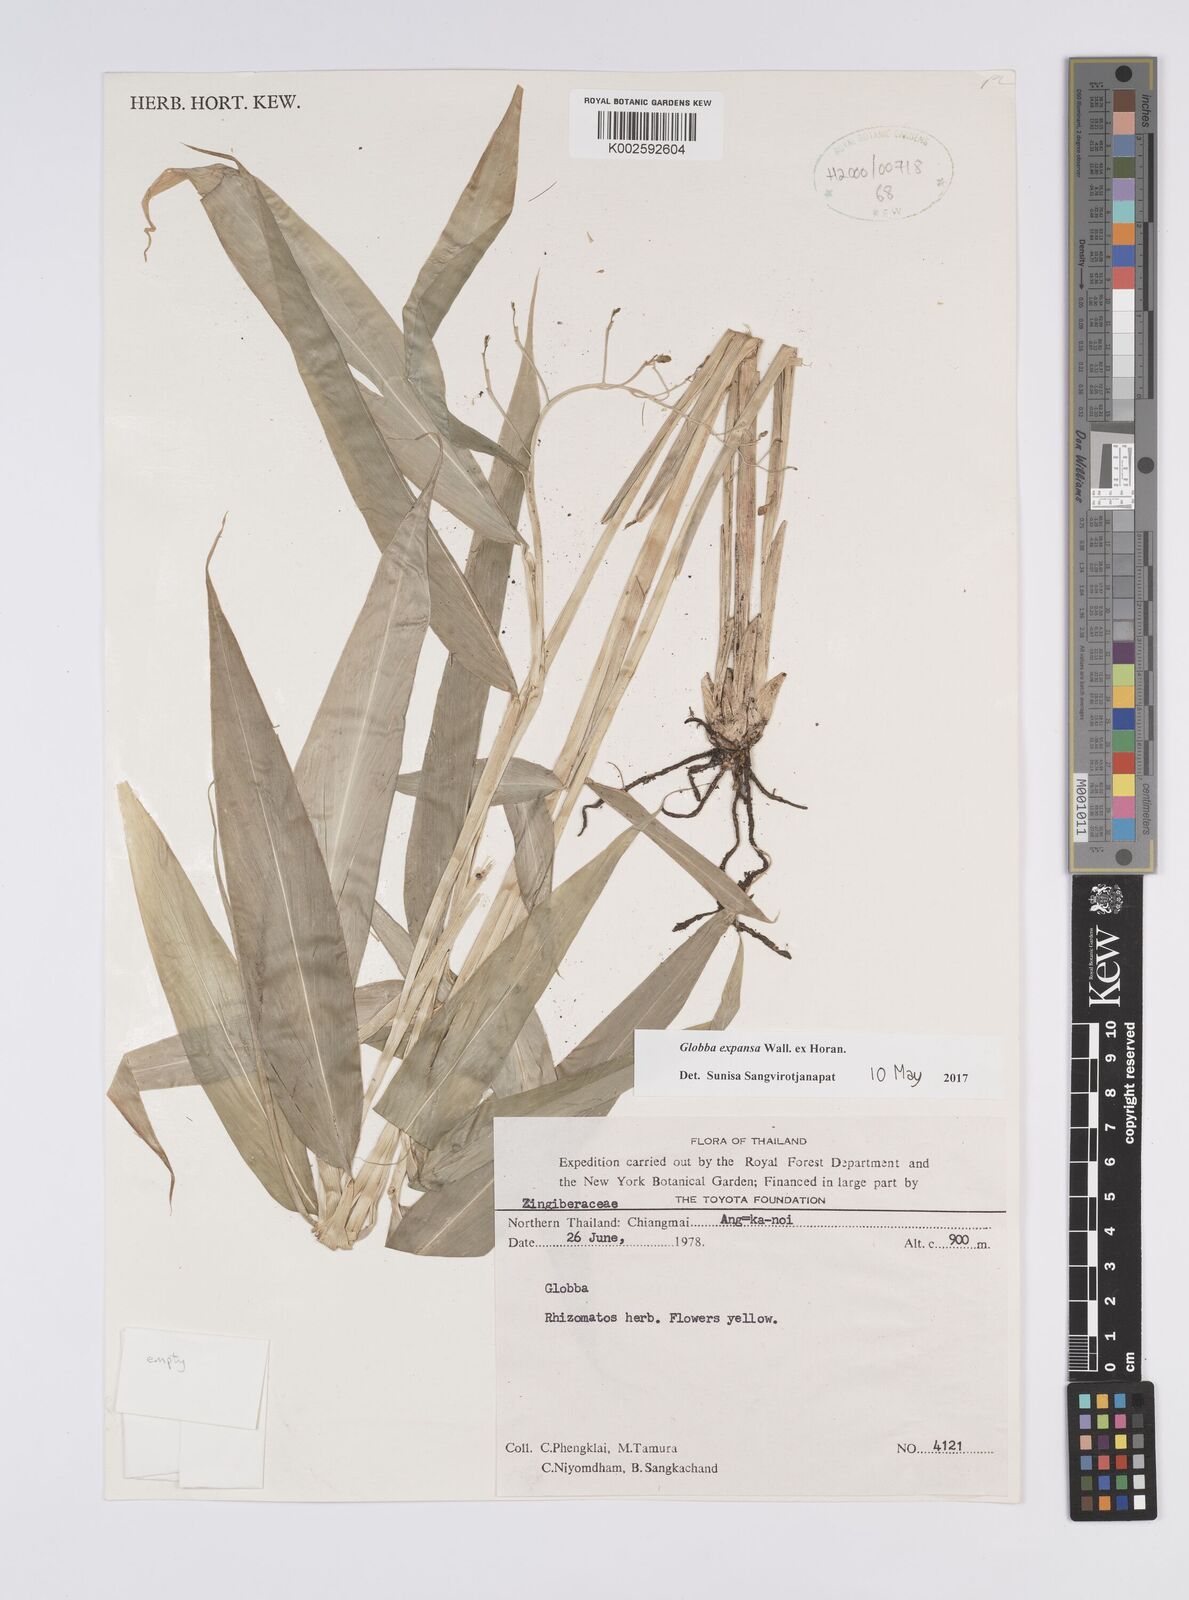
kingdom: Plantae
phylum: Tracheophyta
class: Liliopsida
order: Zingiberales
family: Zingiberaceae
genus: Globba
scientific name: Globba expansa
